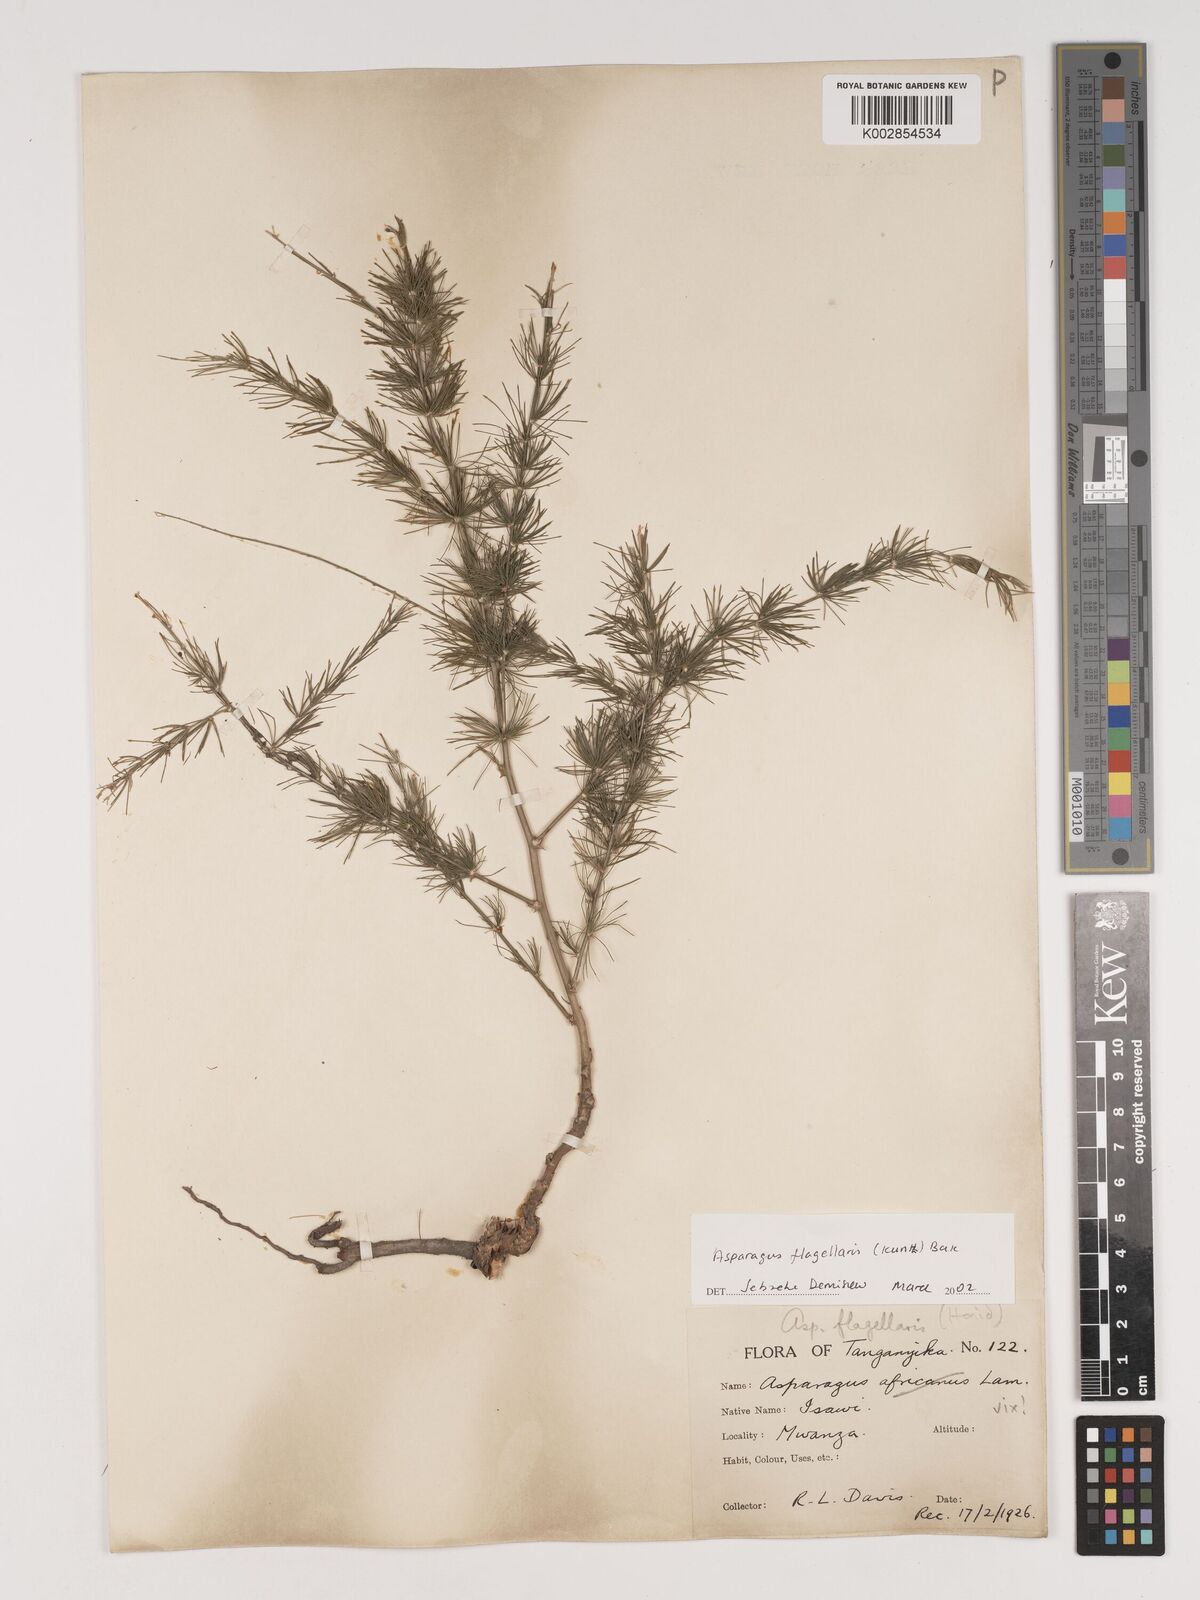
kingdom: Plantae
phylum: Tracheophyta
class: Liliopsida
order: Asparagales
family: Asparagaceae
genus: Asparagus
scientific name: Asparagus flagellaris
